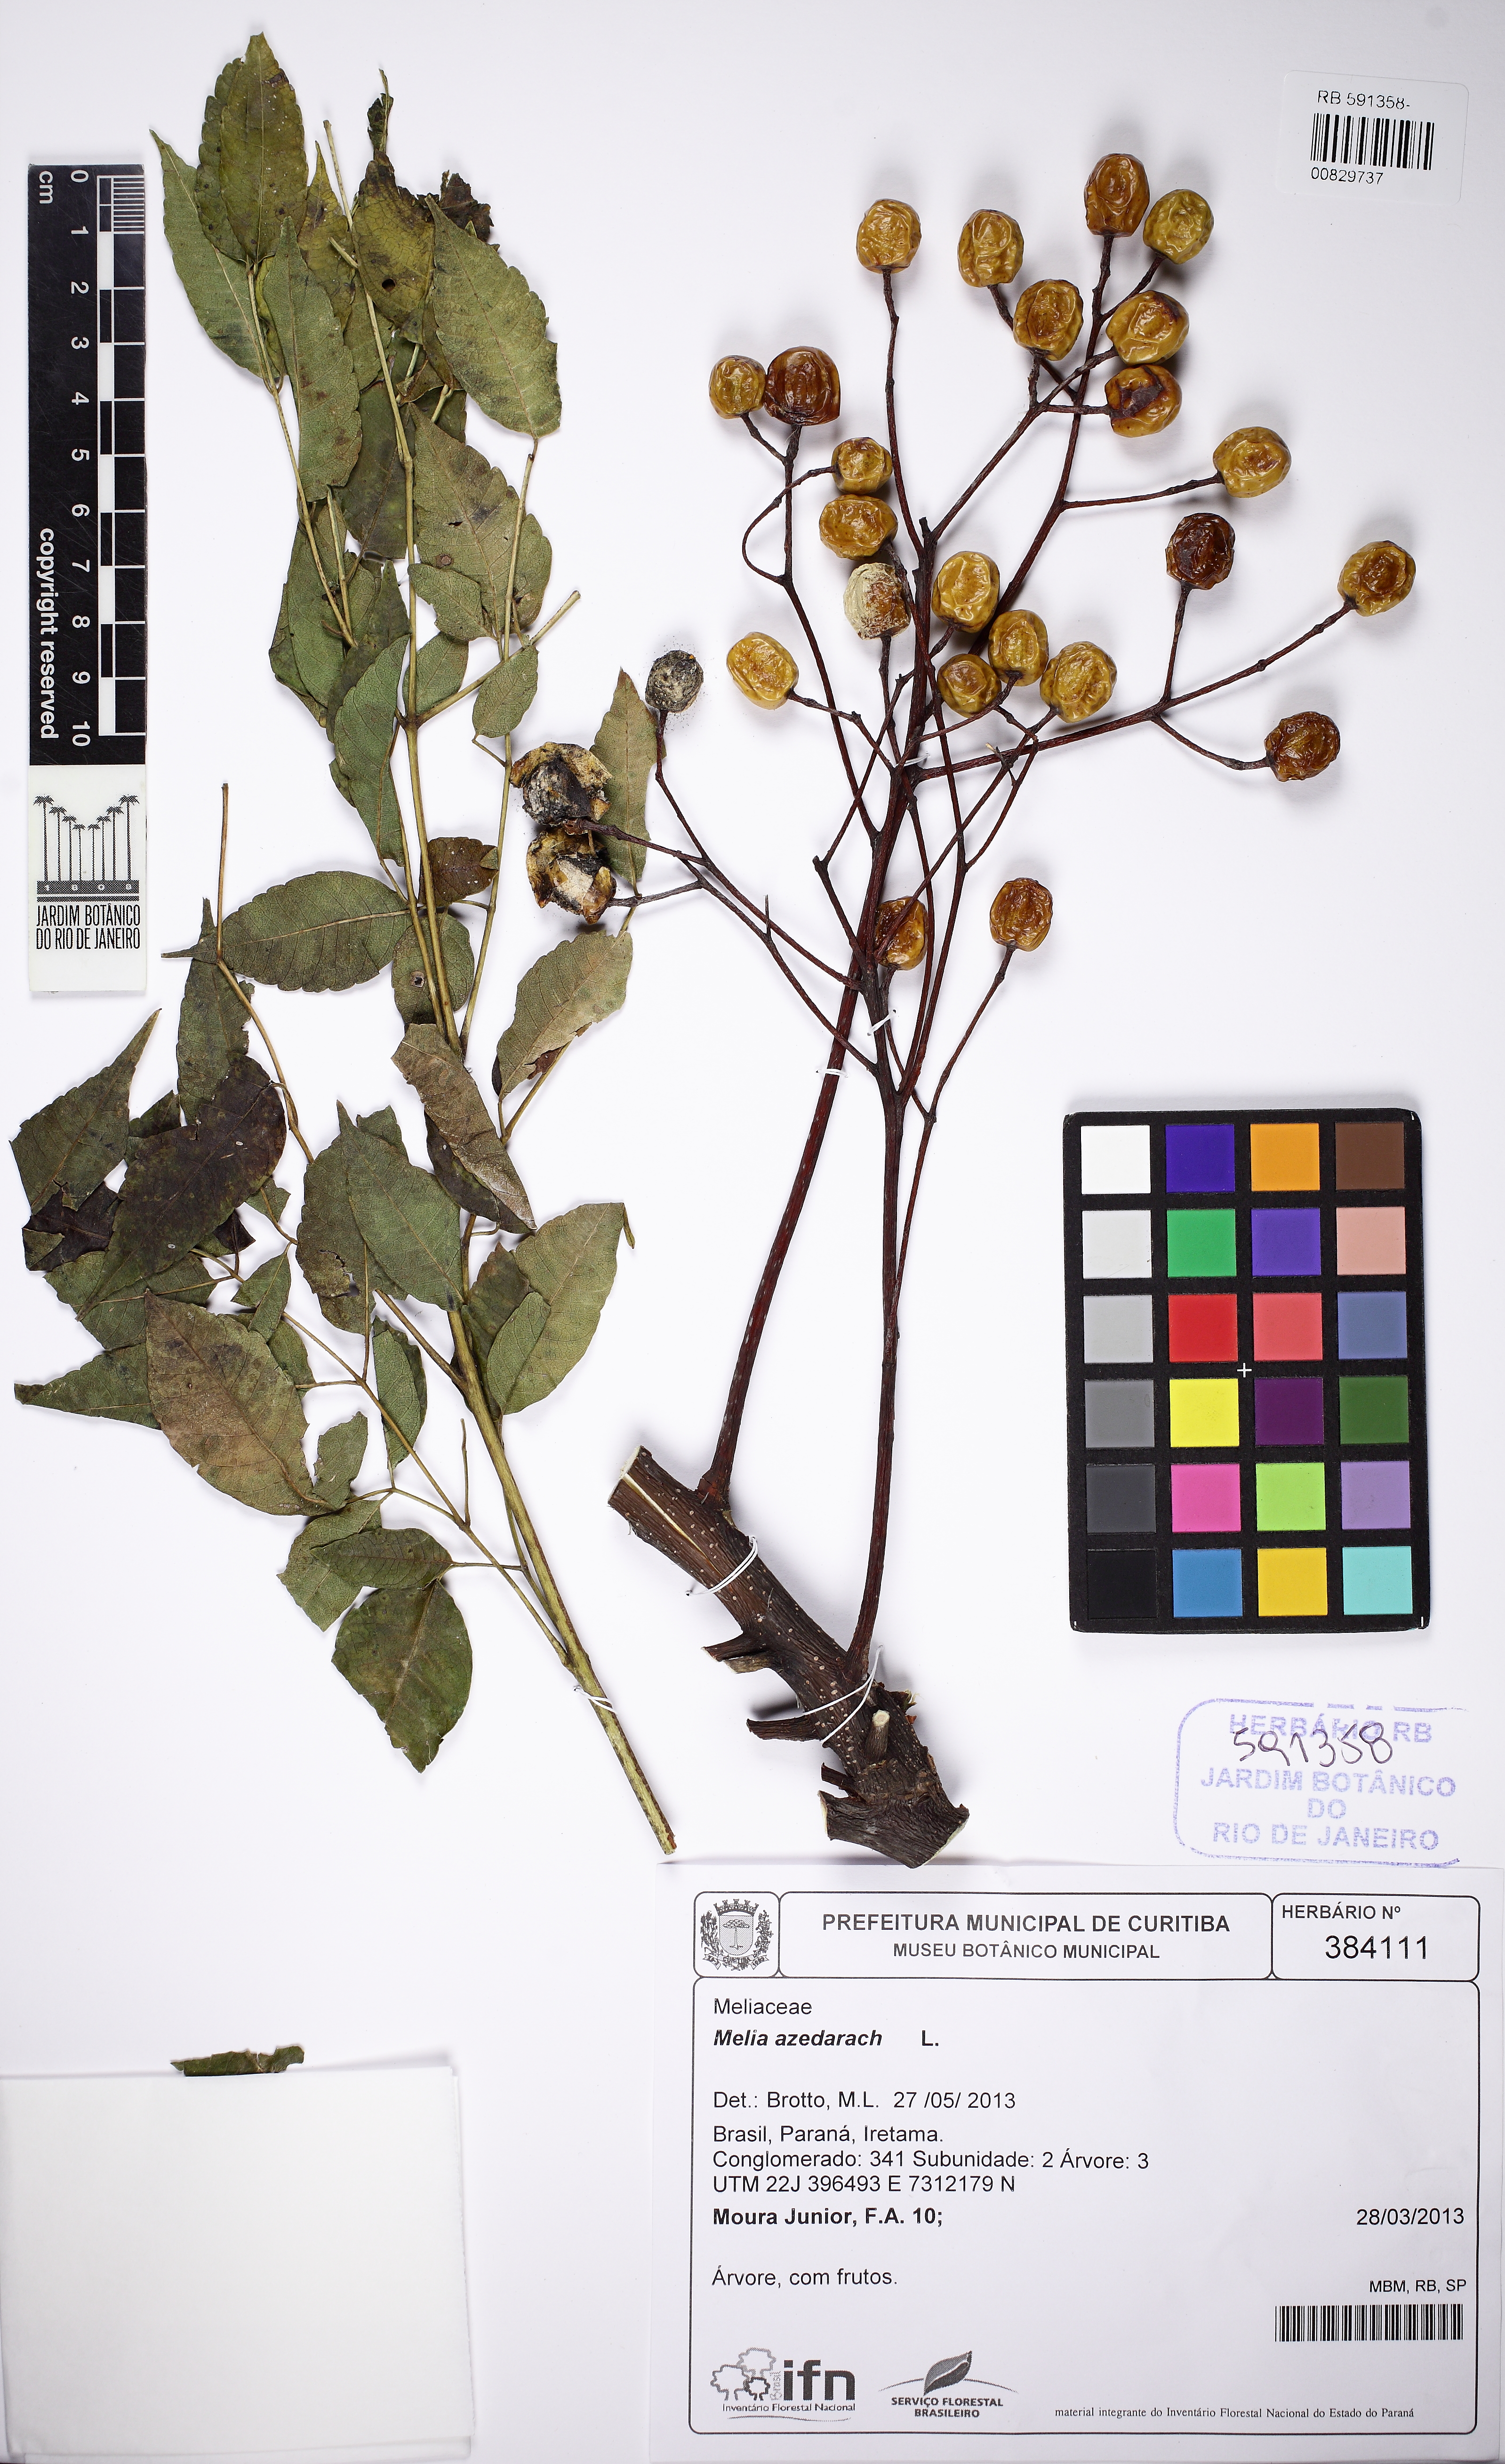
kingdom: Plantae
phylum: Tracheophyta
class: Magnoliopsida
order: Sapindales
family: Meliaceae
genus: Melia
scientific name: Melia azedarach
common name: Chinaberrytree
